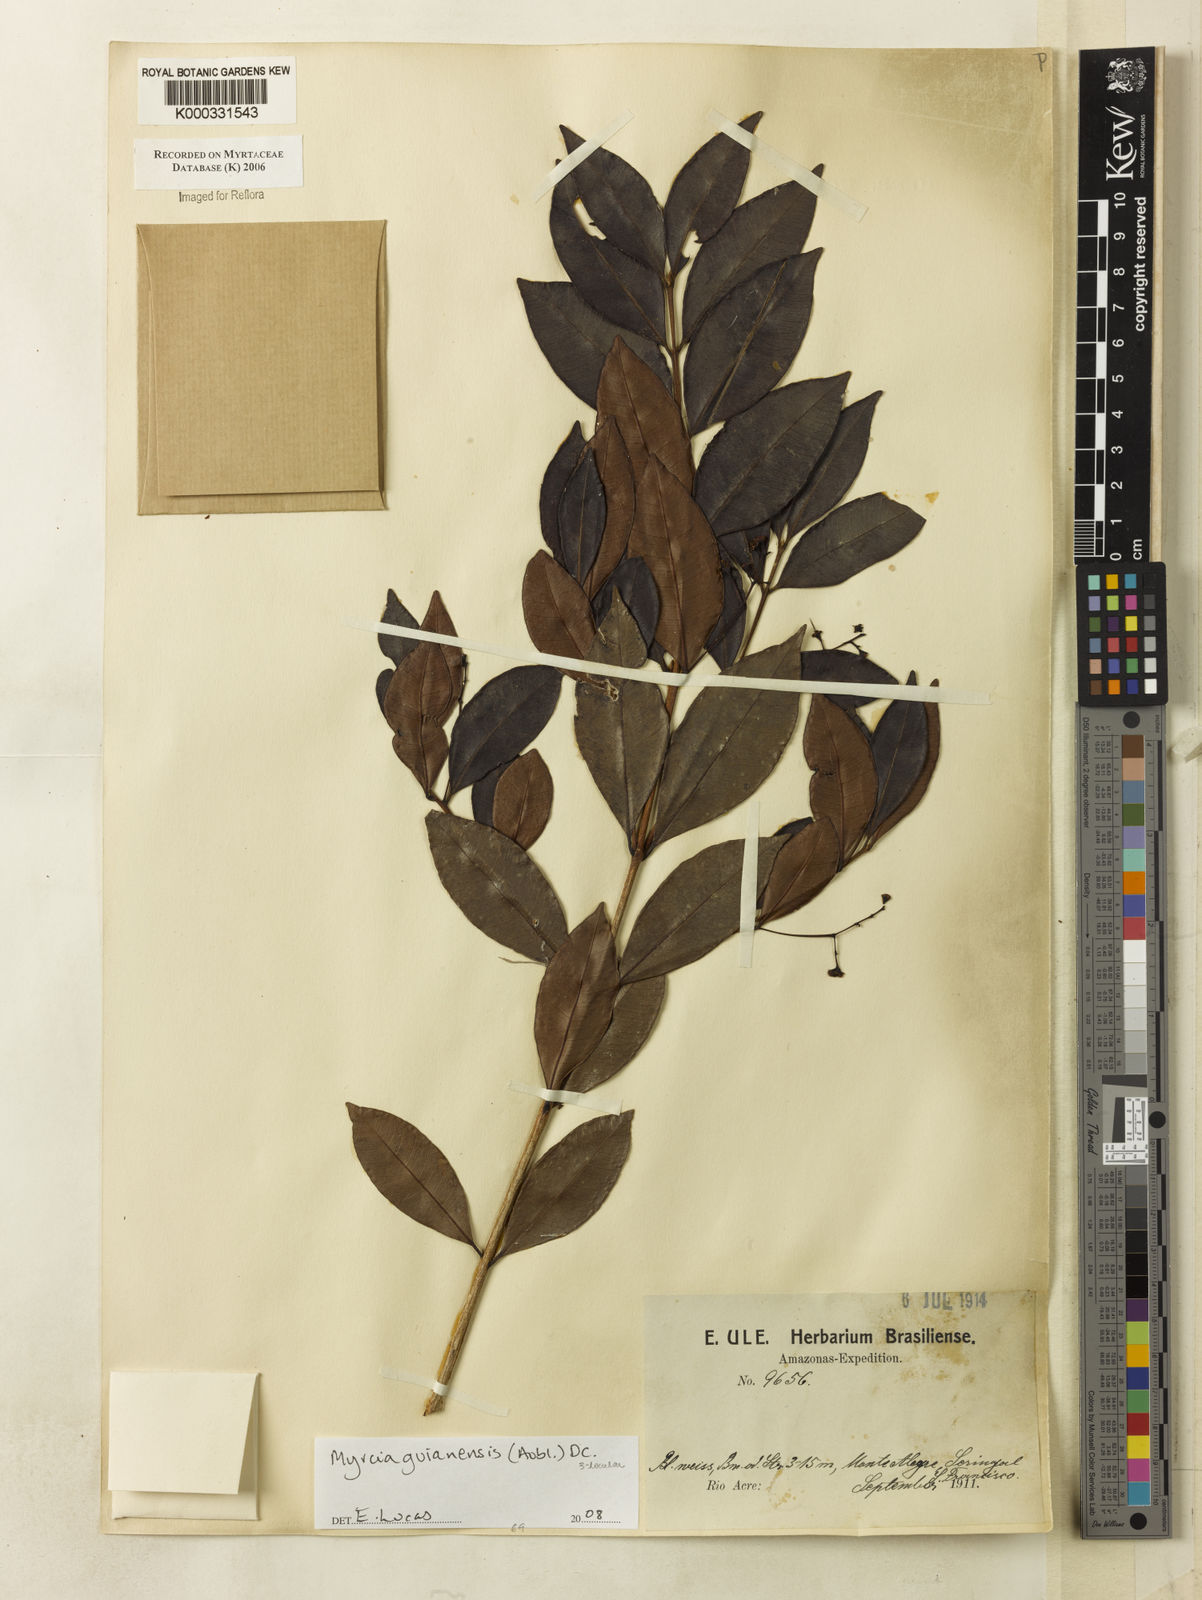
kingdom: Plantae
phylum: Tracheophyta
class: Magnoliopsida
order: Myrtales
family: Myrtaceae
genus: Myrcia
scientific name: Myrcia
